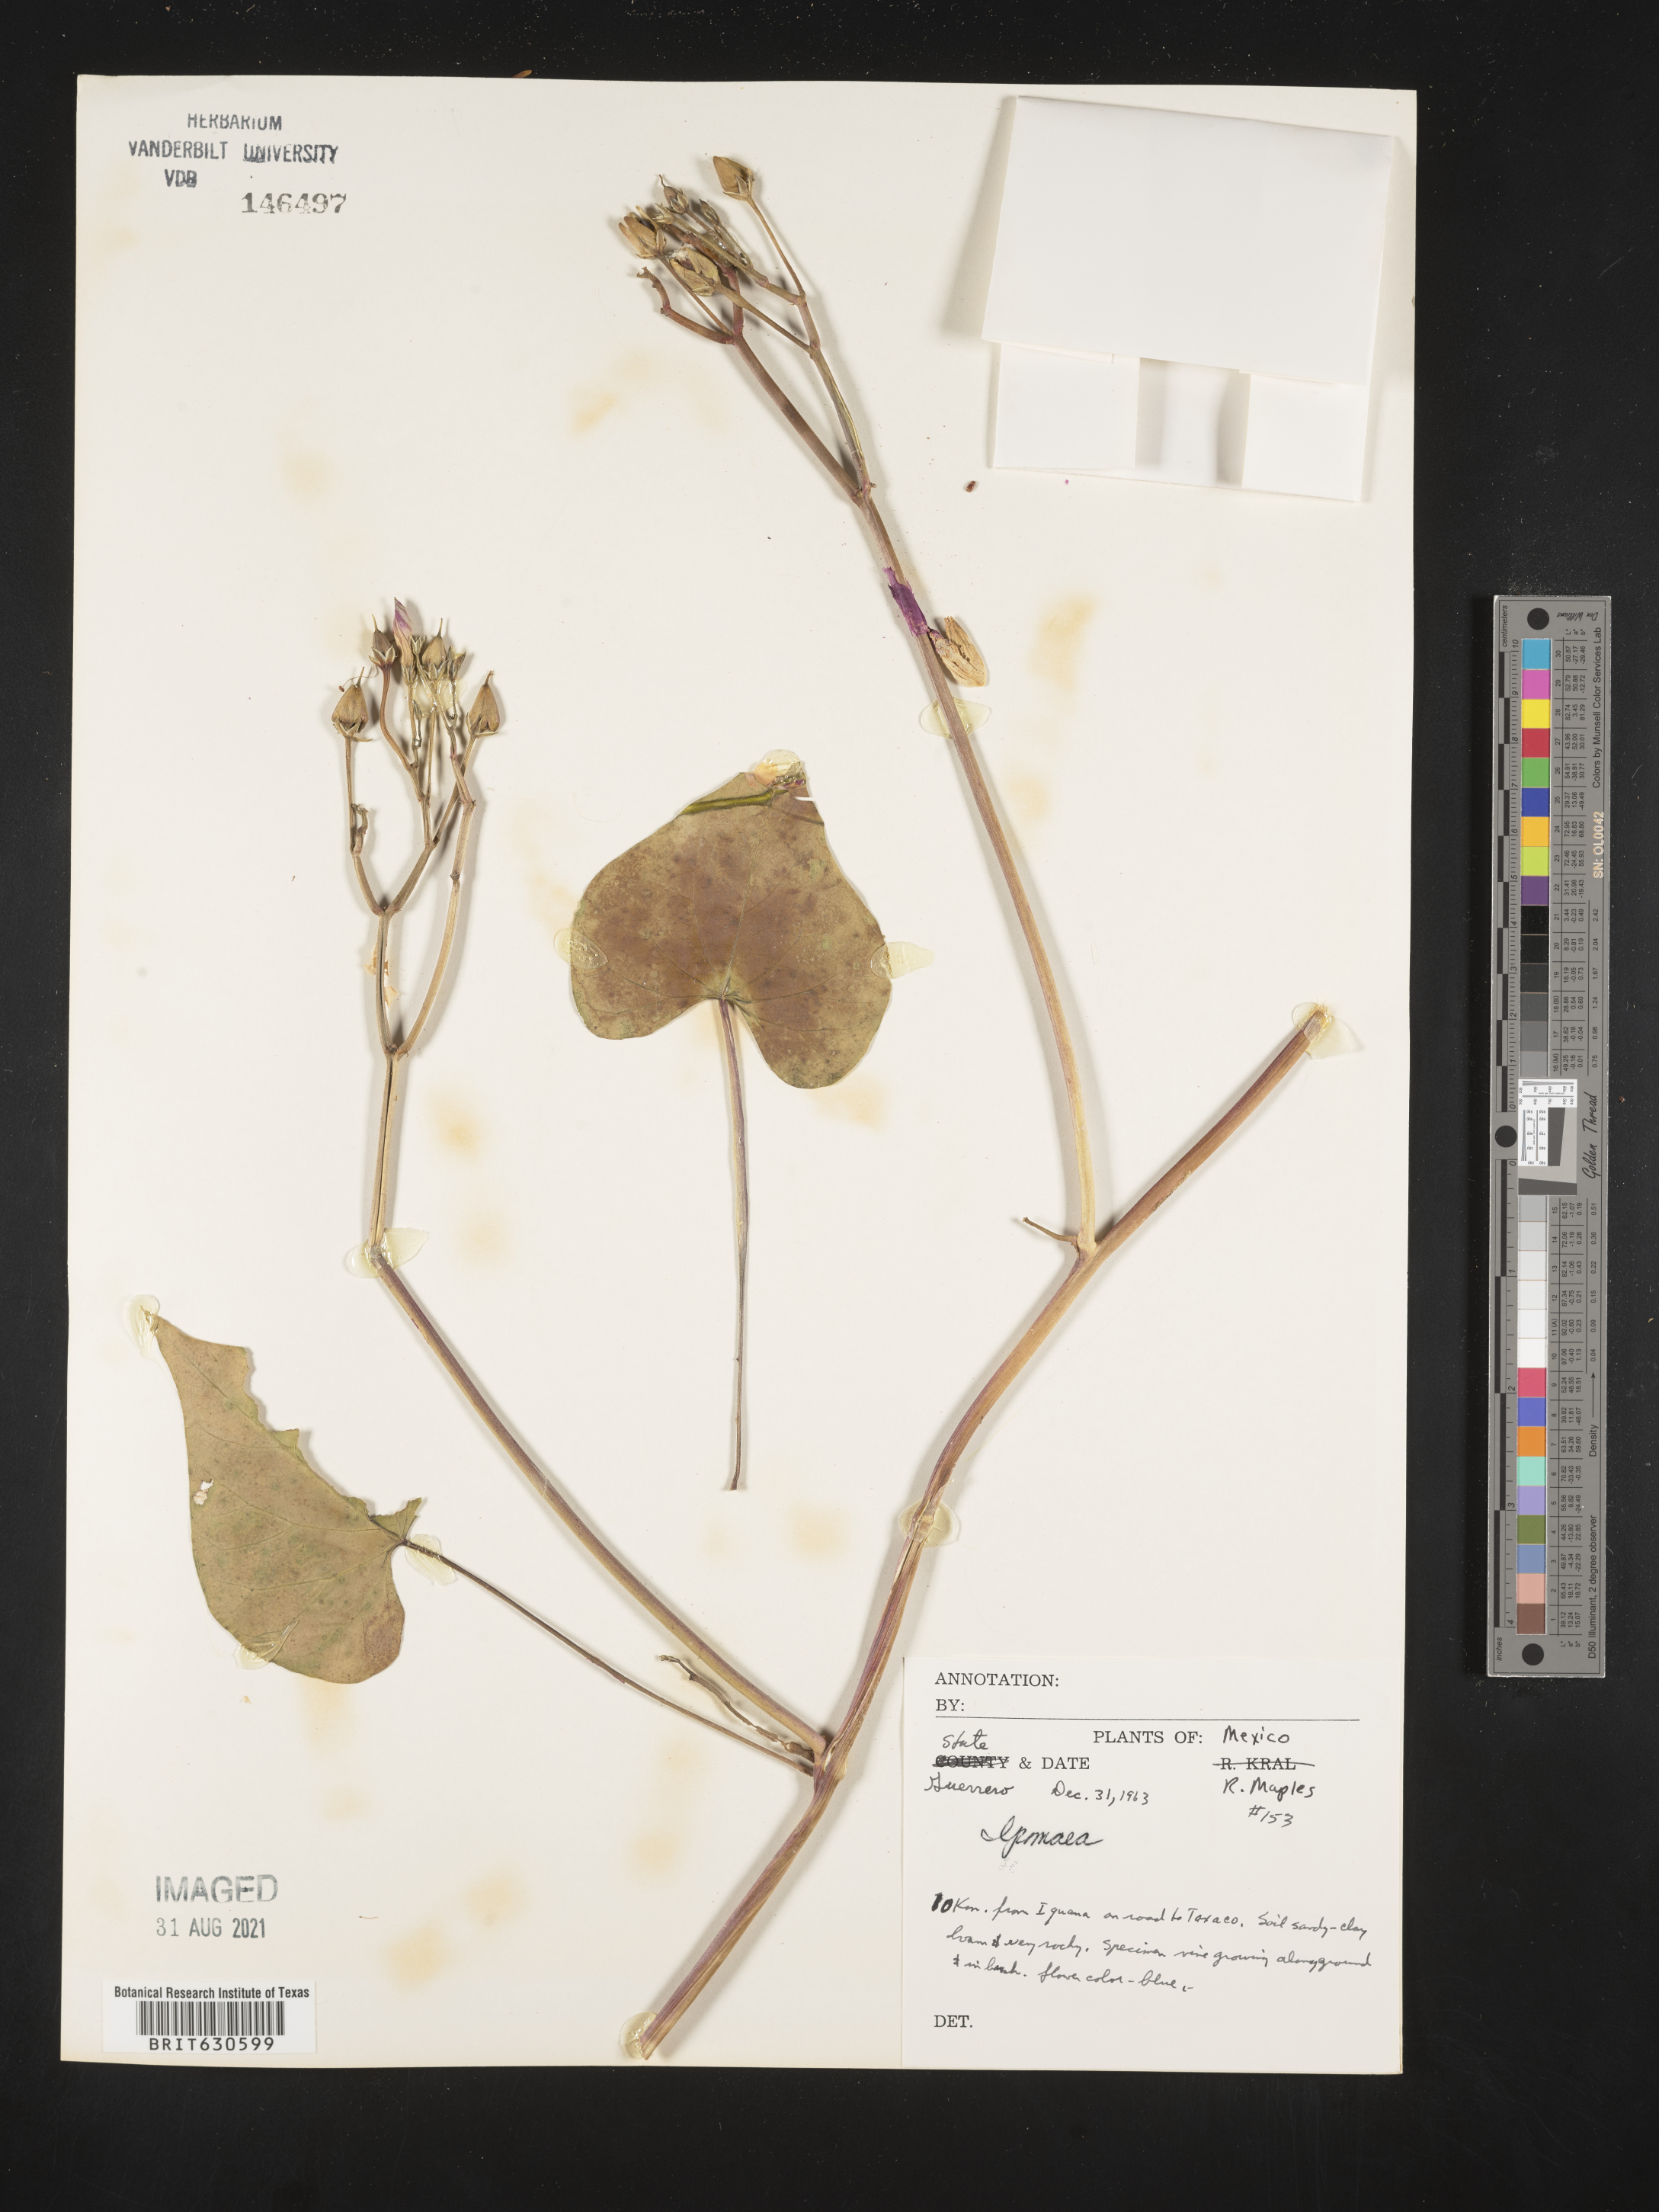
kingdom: Plantae
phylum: Tracheophyta
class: Magnoliopsida
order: Solanales
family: Convolvulaceae
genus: Ipomoea
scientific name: Ipomoea
